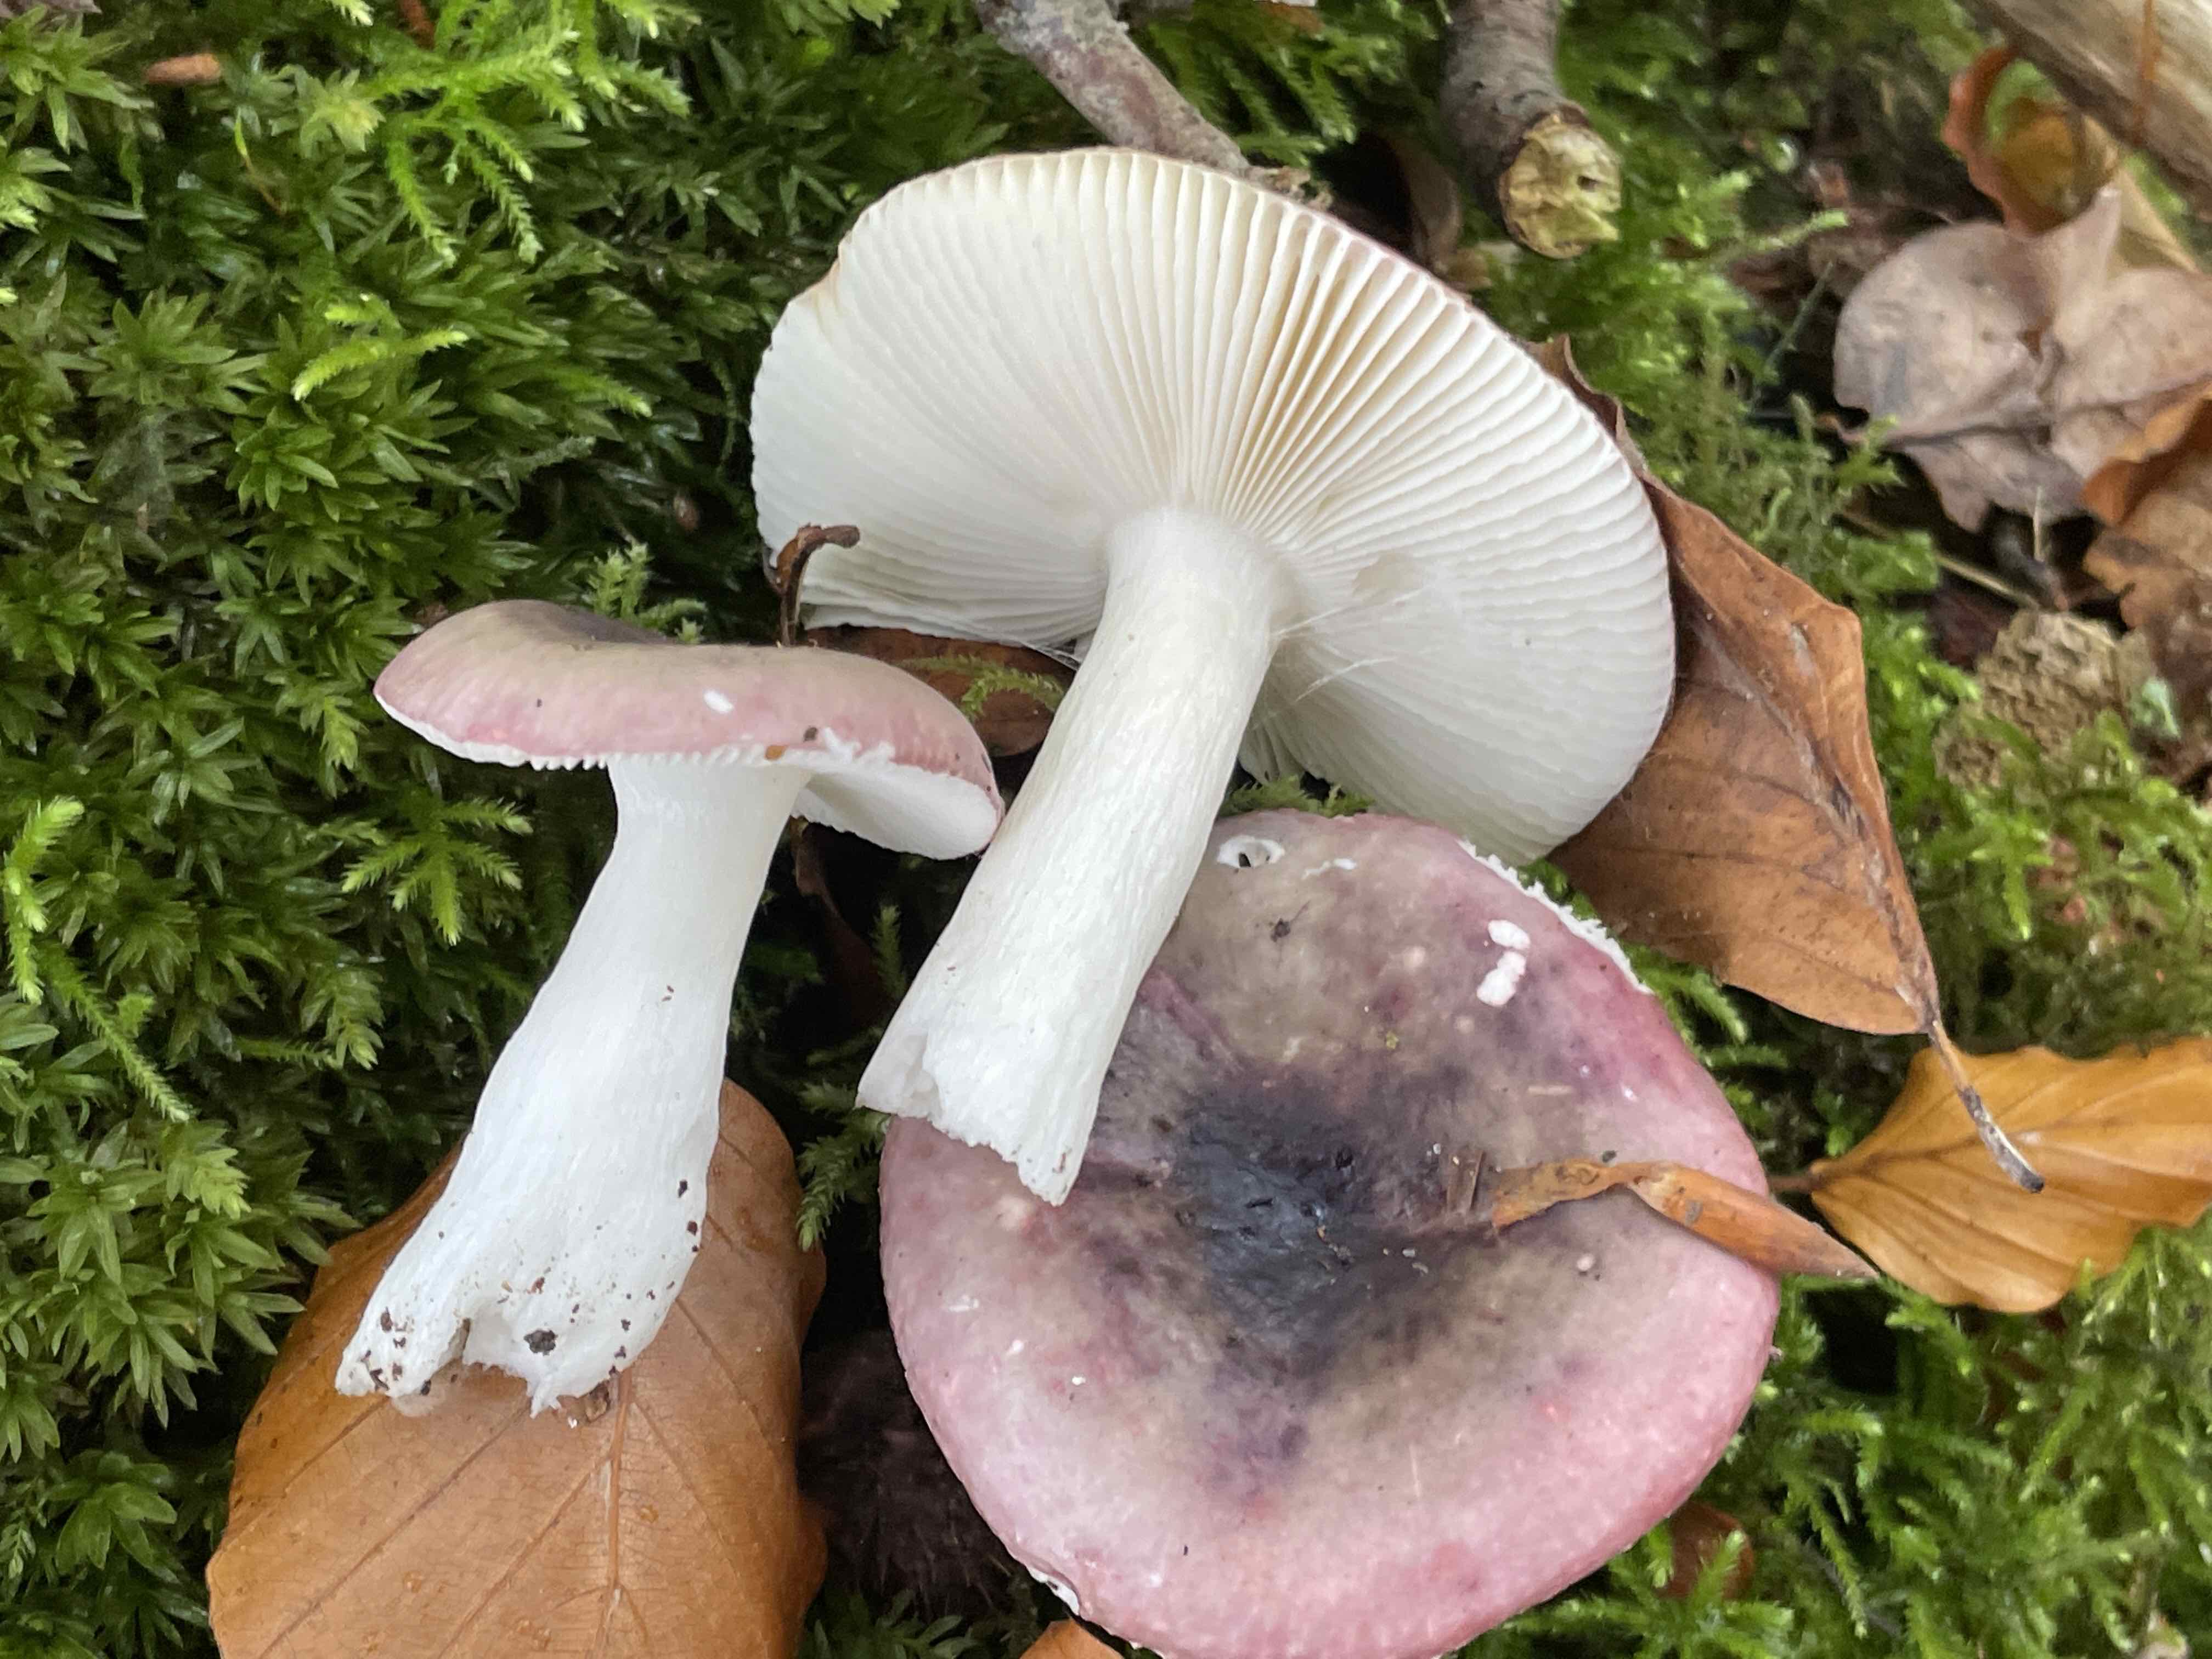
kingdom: Fungi
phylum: Basidiomycota
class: Agaricomycetes
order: Russulales
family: Russulaceae
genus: Russula
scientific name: Russula fragilis
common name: savbladet skørhat
